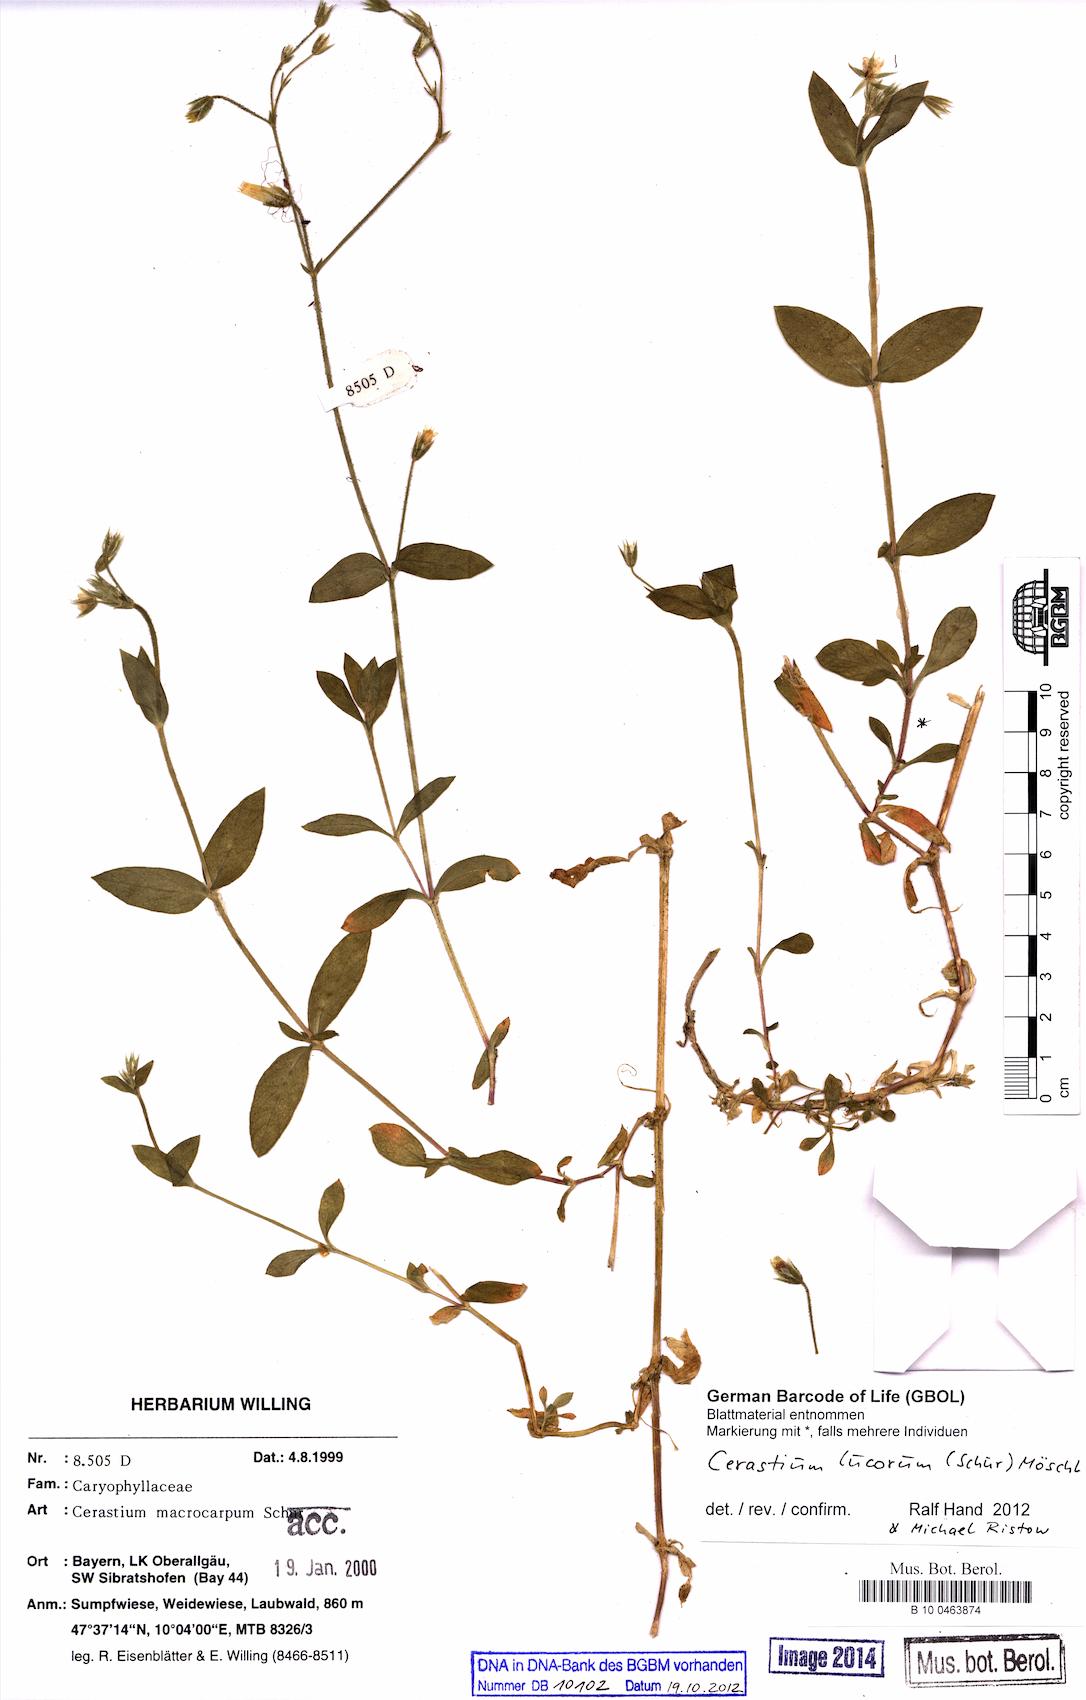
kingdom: Plantae
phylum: Tracheophyta
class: Magnoliopsida
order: Caryophyllales
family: Caryophyllaceae
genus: Cerastium
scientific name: Cerastium lucorum
